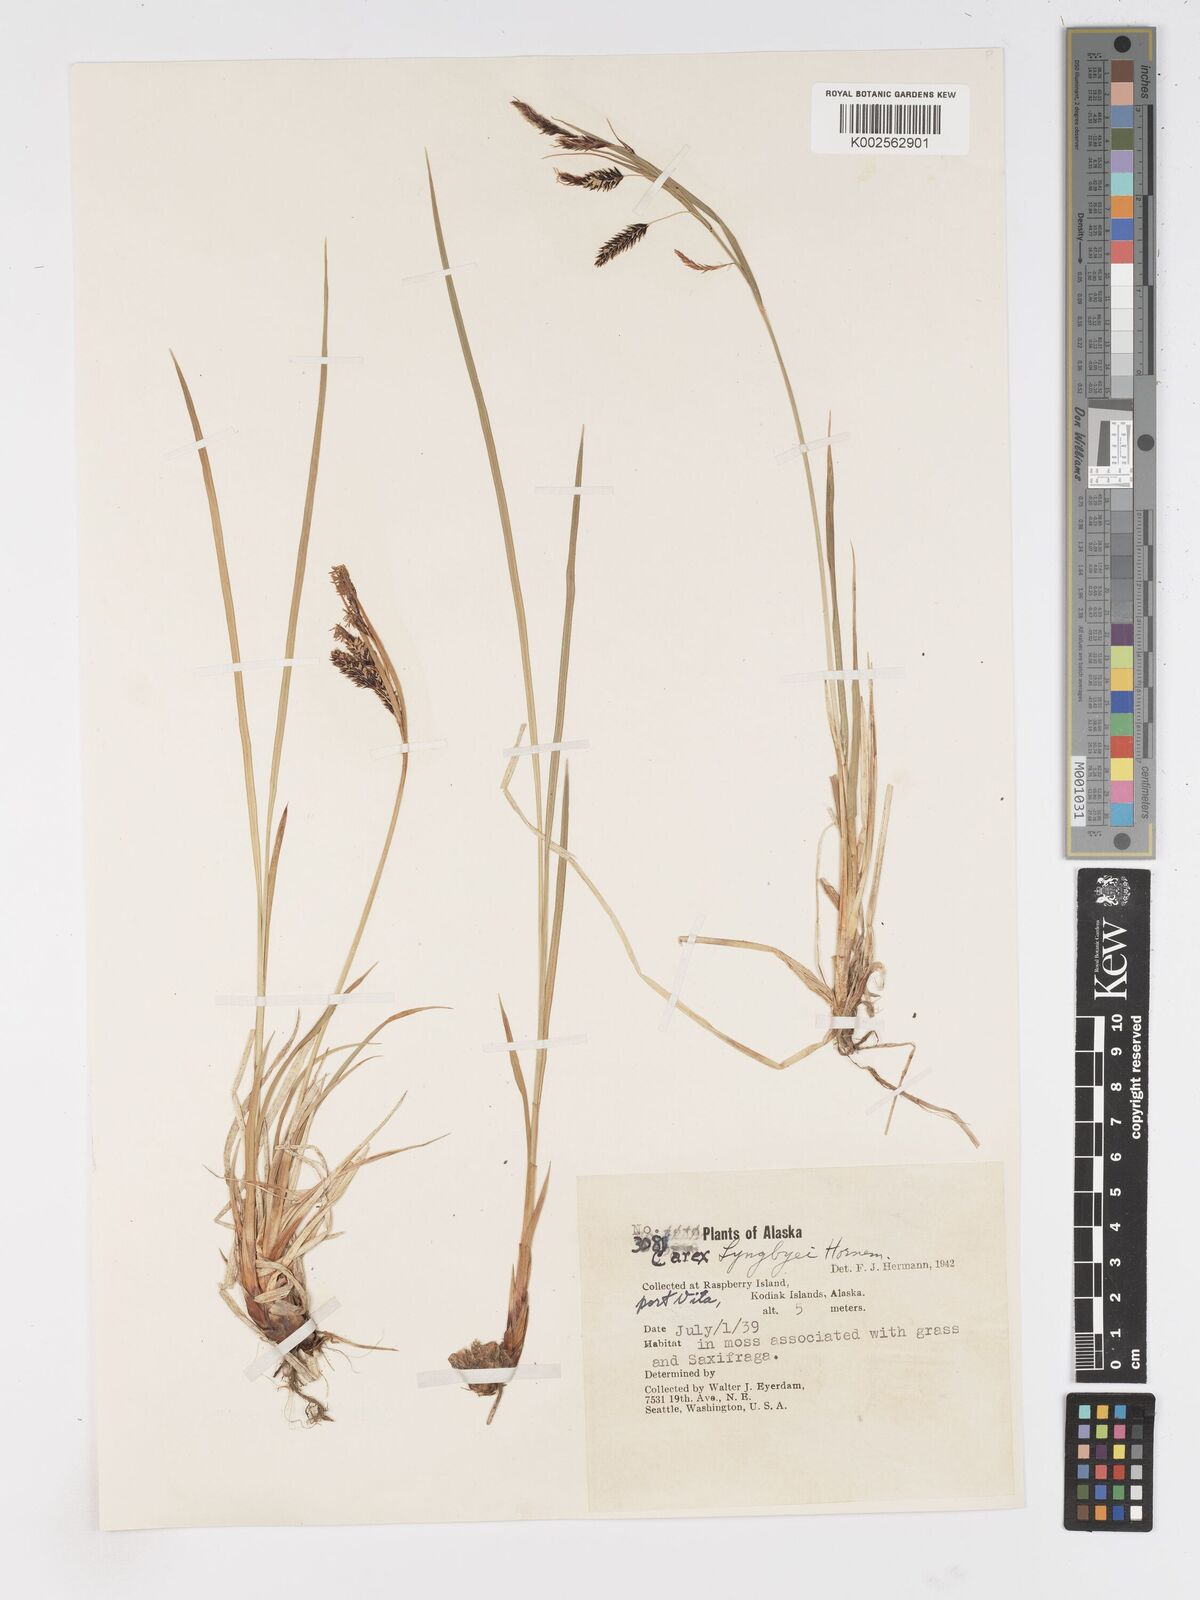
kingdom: Plantae
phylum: Tracheophyta
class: Liliopsida
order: Poales
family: Cyperaceae
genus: Carex
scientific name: Carex lyngbyei
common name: Lyngbye's sedge
